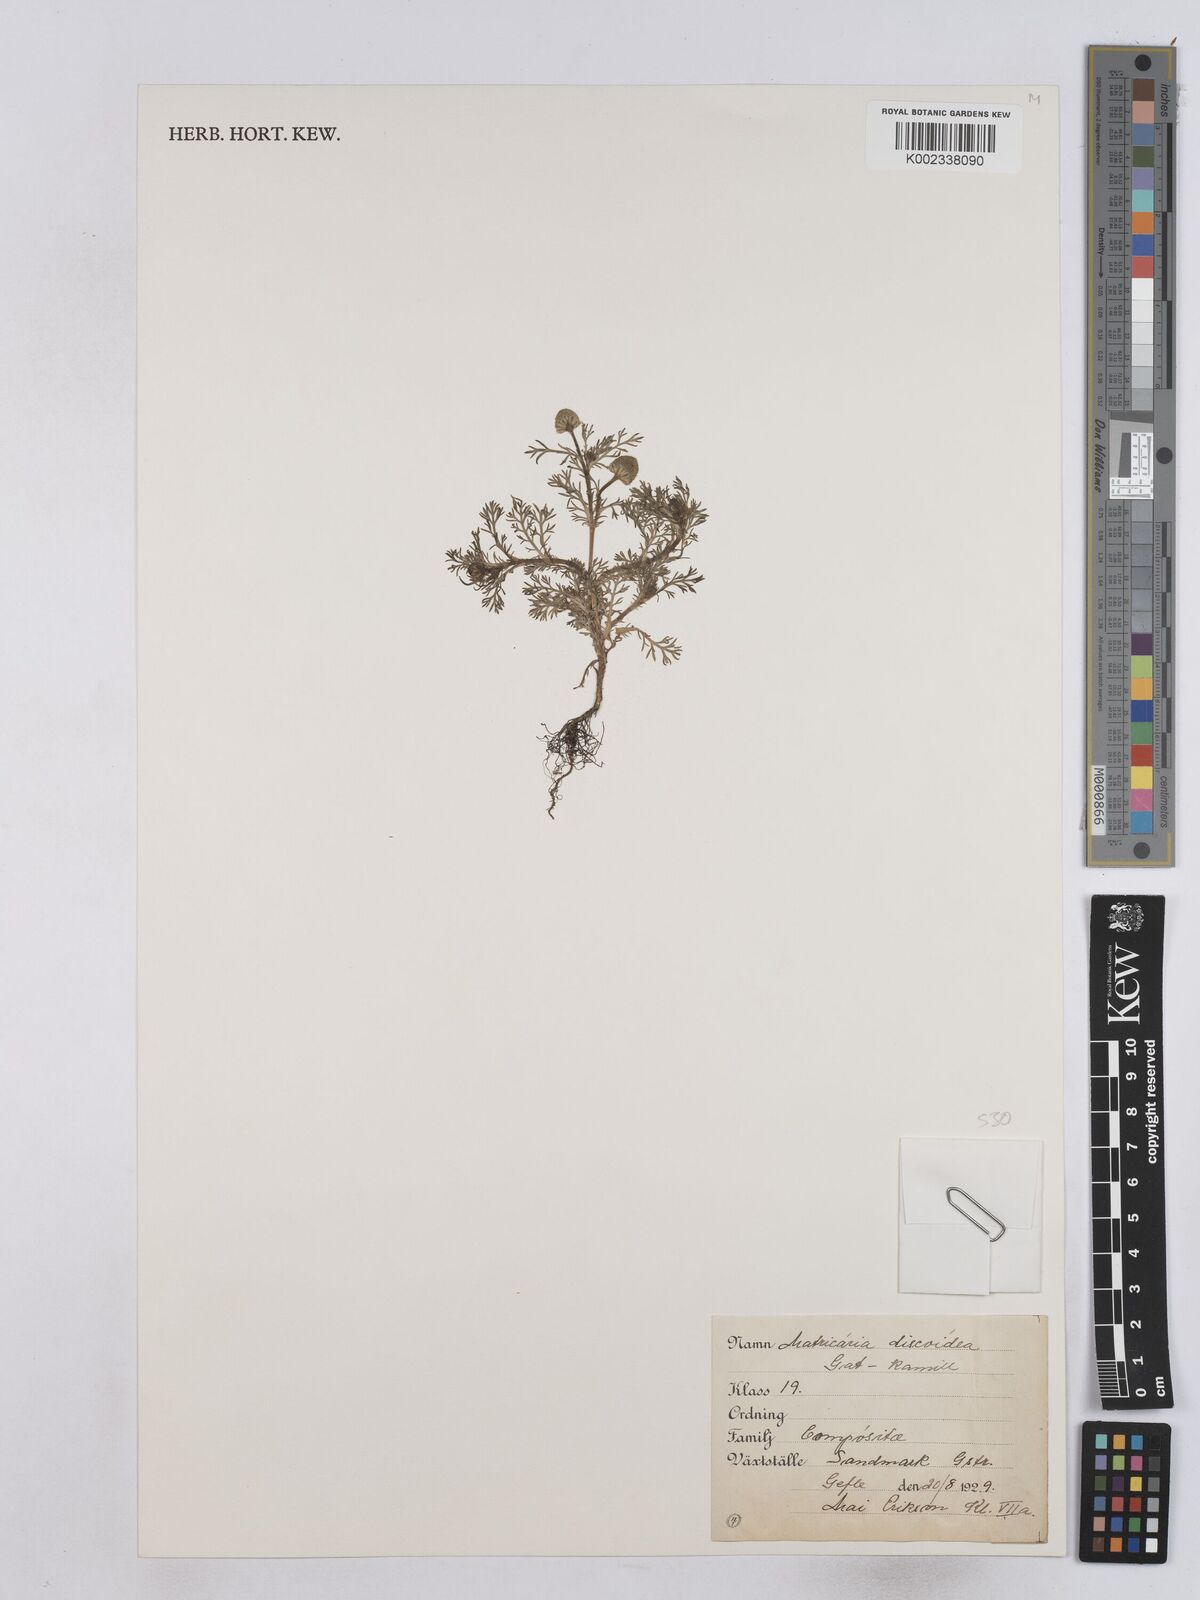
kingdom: Plantae
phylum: Tracheophyta
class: Magnoliopsida
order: Asterales
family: Asteraceae
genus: Matricaria
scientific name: Matricaria discoidea
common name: Disc mayweed
